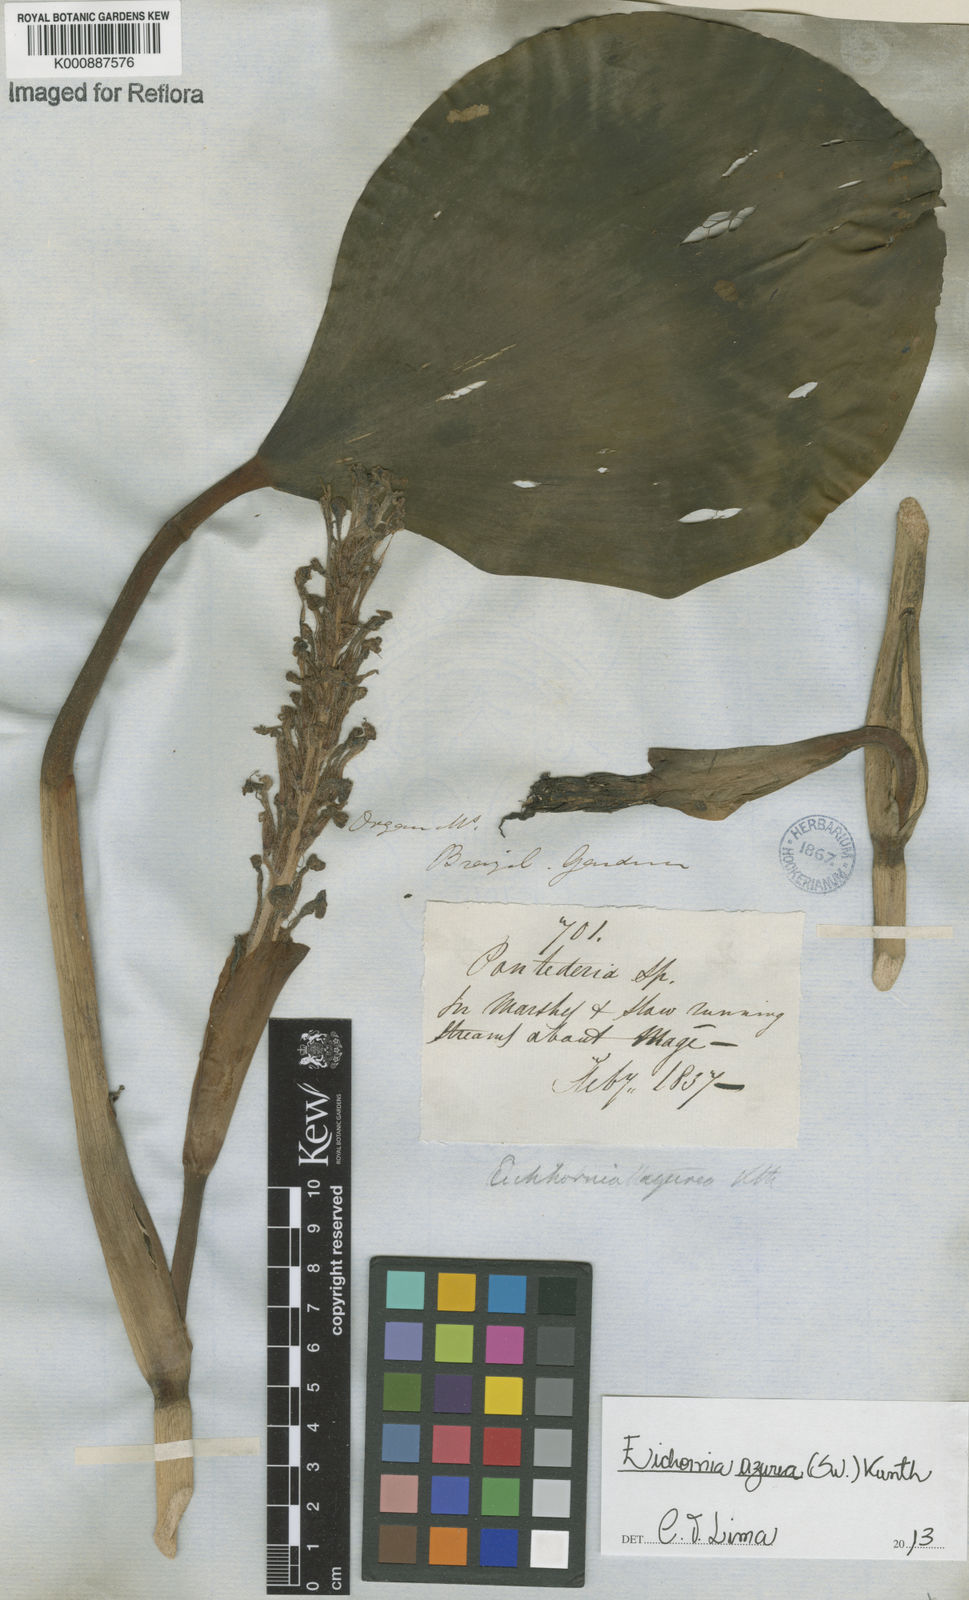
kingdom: Plantae
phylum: Tracheophyta
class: Liliopsida
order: Commelinales
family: Pontederiaceae
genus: Pontederia
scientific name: Pontederia azurea
